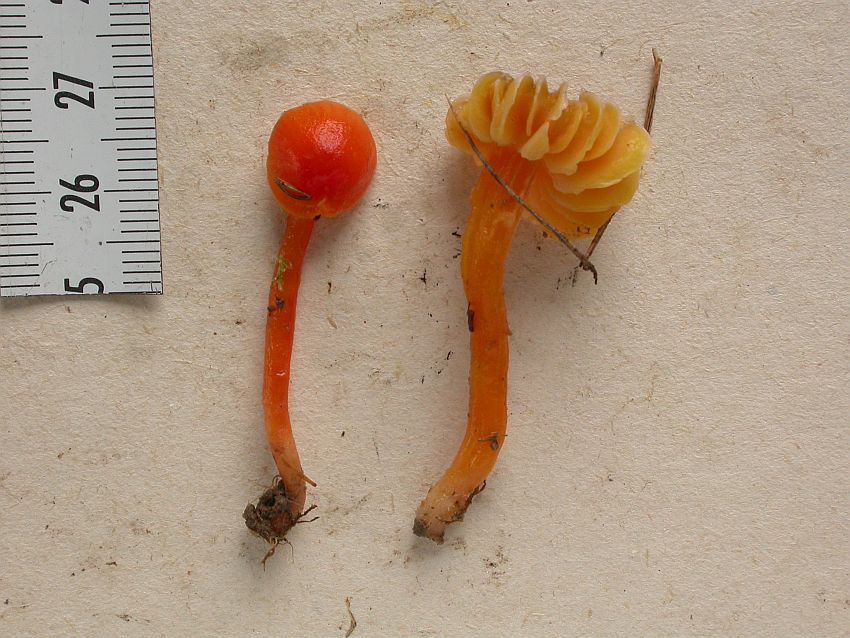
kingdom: Fungi
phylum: Basidiomycota
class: Agaricomycetes
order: Agaricales
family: Hygrophoraceae
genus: Hygrocybe
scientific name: Hygrocybe mucronella
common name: bitter vokshat
